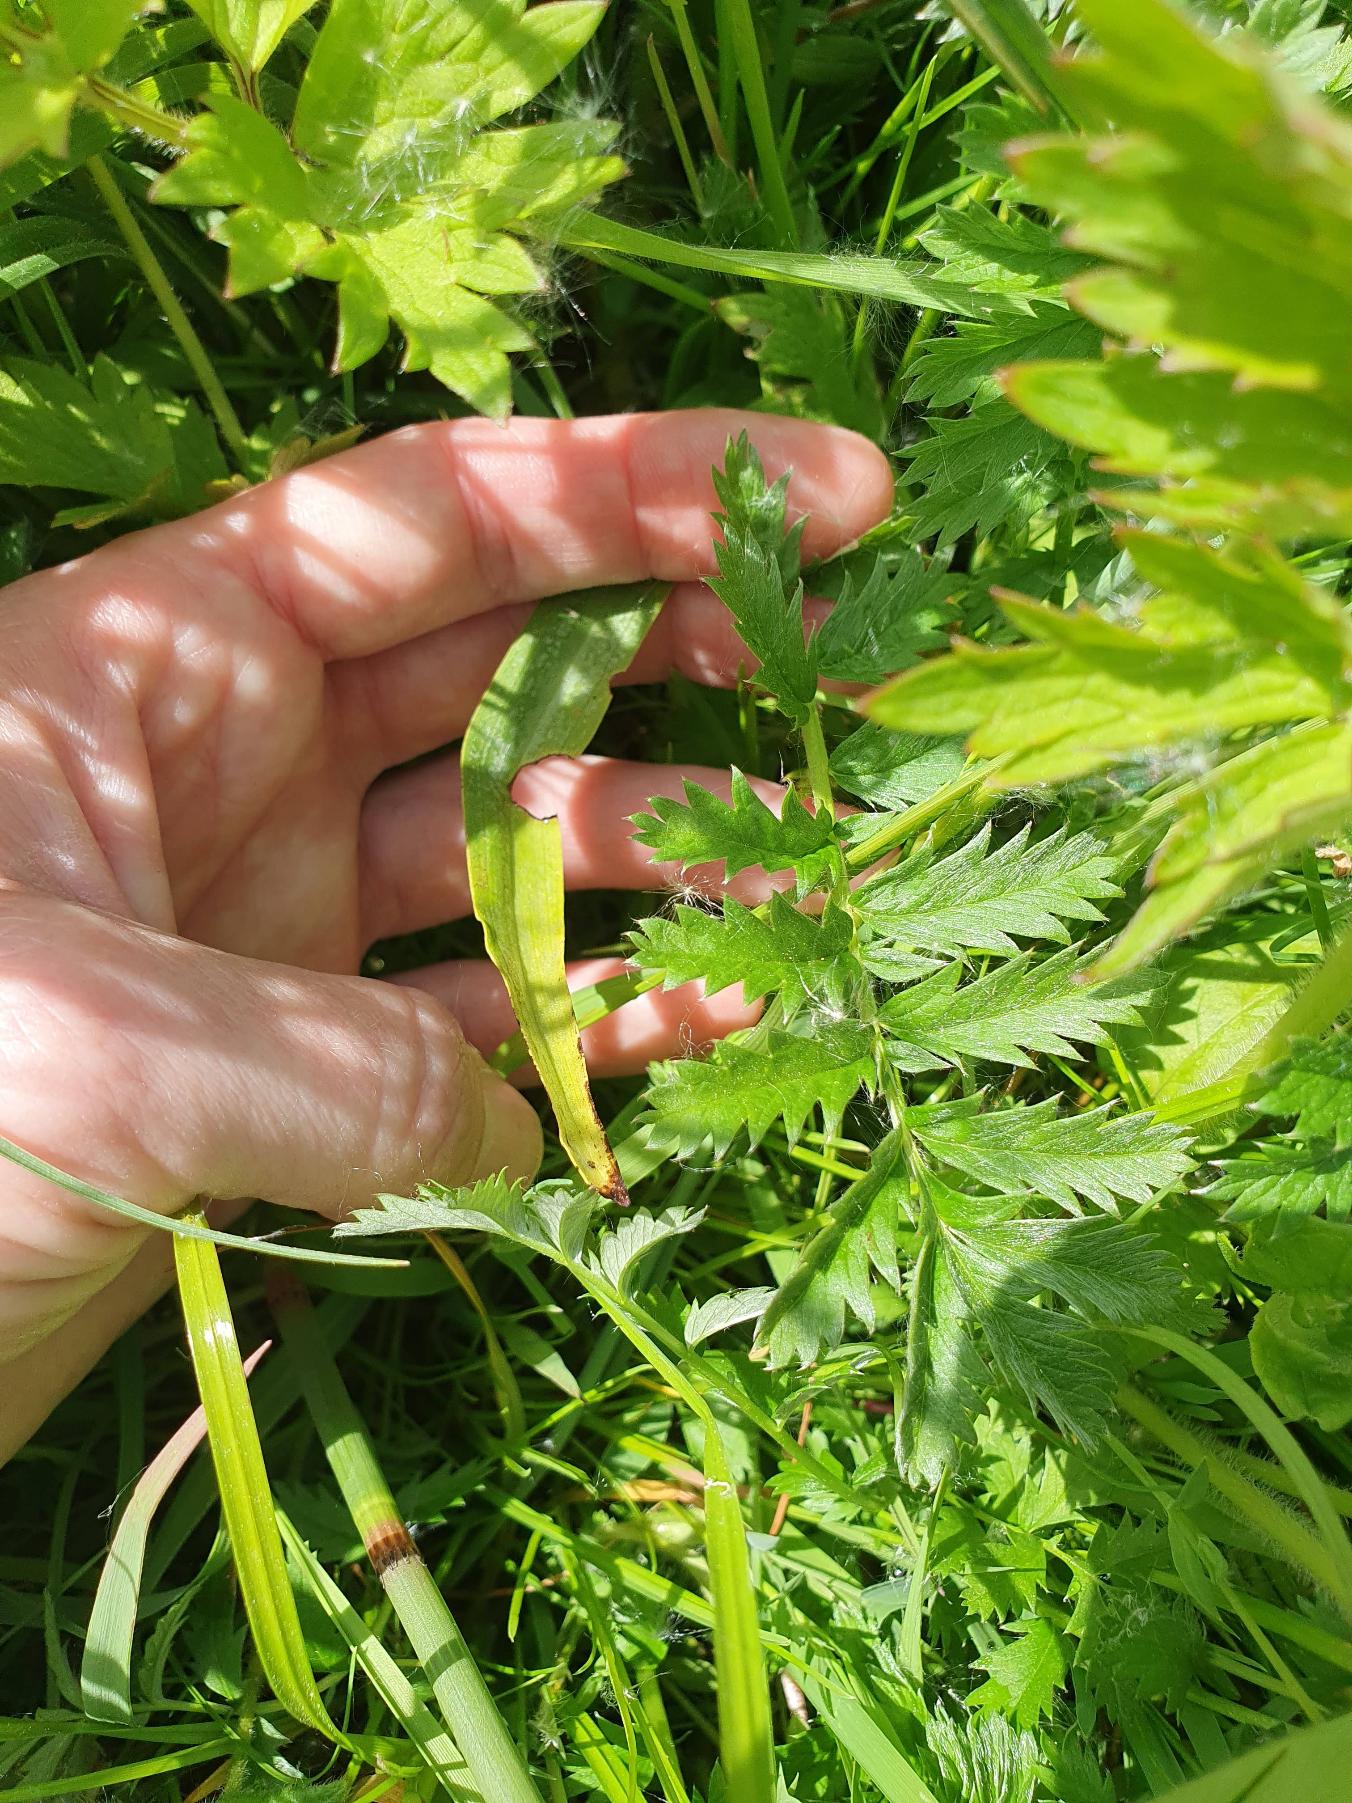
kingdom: Plantae
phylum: Tracheophyta
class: Magnoliopsida
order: Rosales
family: Rosaceae
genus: Argentina
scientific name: Argentina anserina
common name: Gåsepotentil
